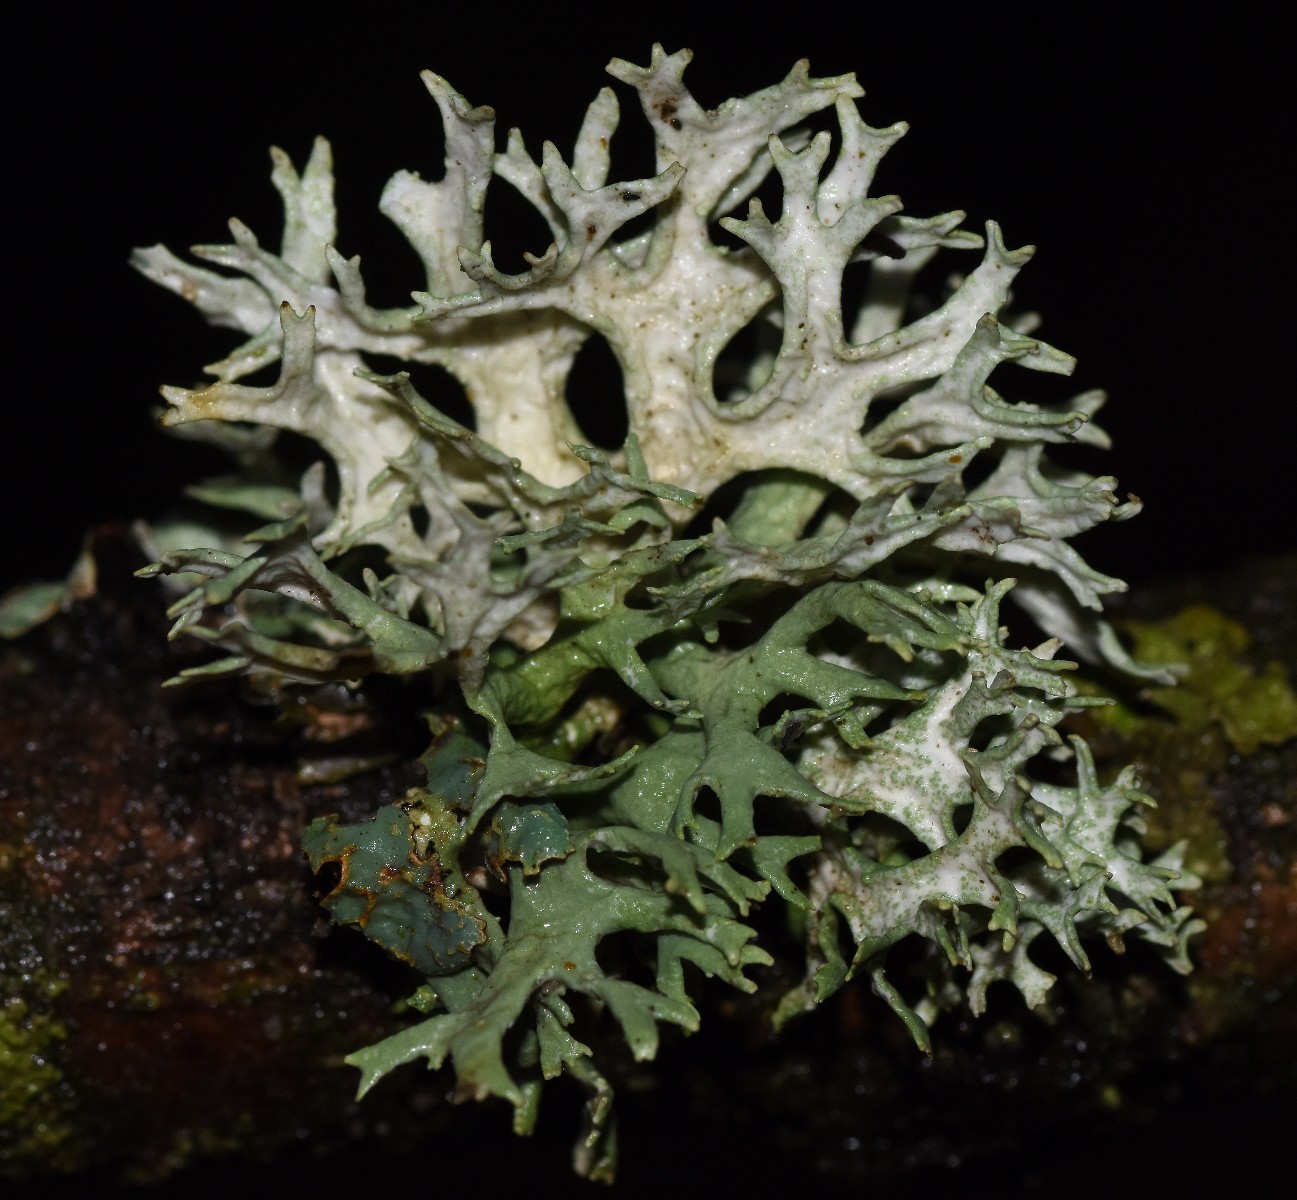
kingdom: Fungi
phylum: Ascomycota
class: Lecanoromycetes
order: Lecanorales
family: Parmeliaceae
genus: Evernia
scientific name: Evernia prunastri
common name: almindelig slåenlav
